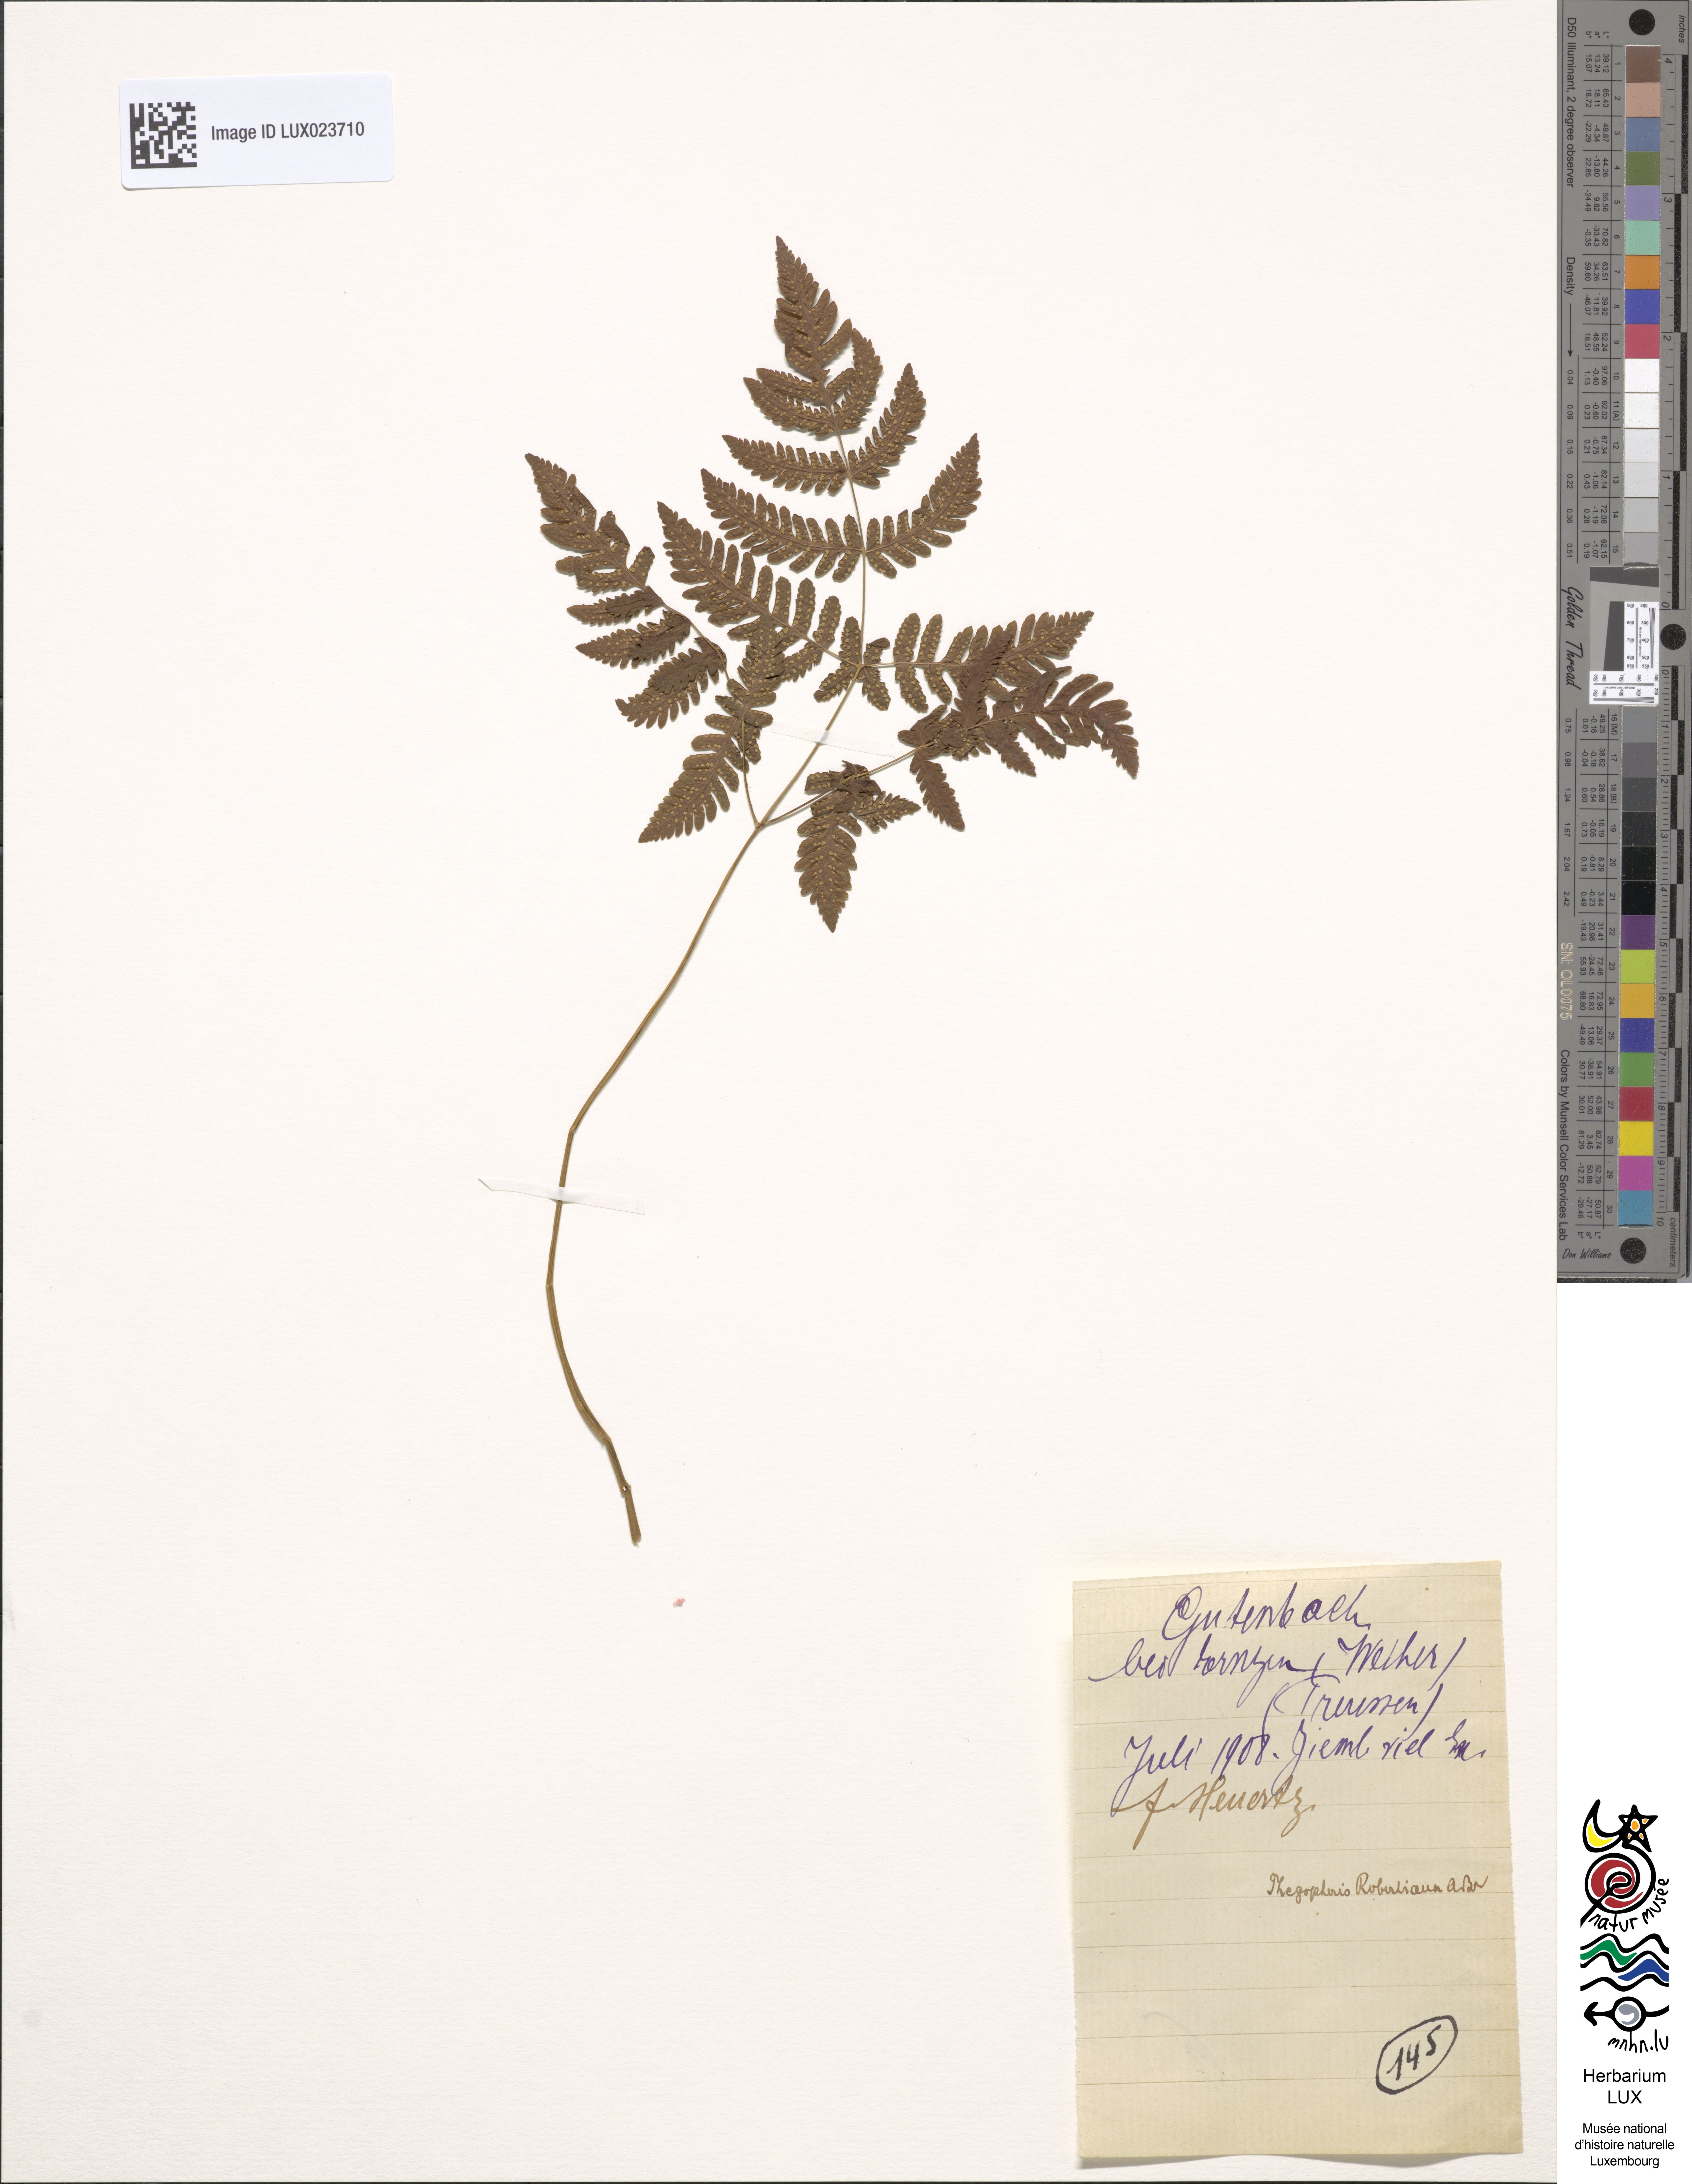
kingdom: Plantae
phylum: Tracheophyta
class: Polypodiopsida
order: Polypodiales
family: Cystopteridaceae
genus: Gymnocarpium
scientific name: Gymnocarpium robertianum
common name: Limestone fern
